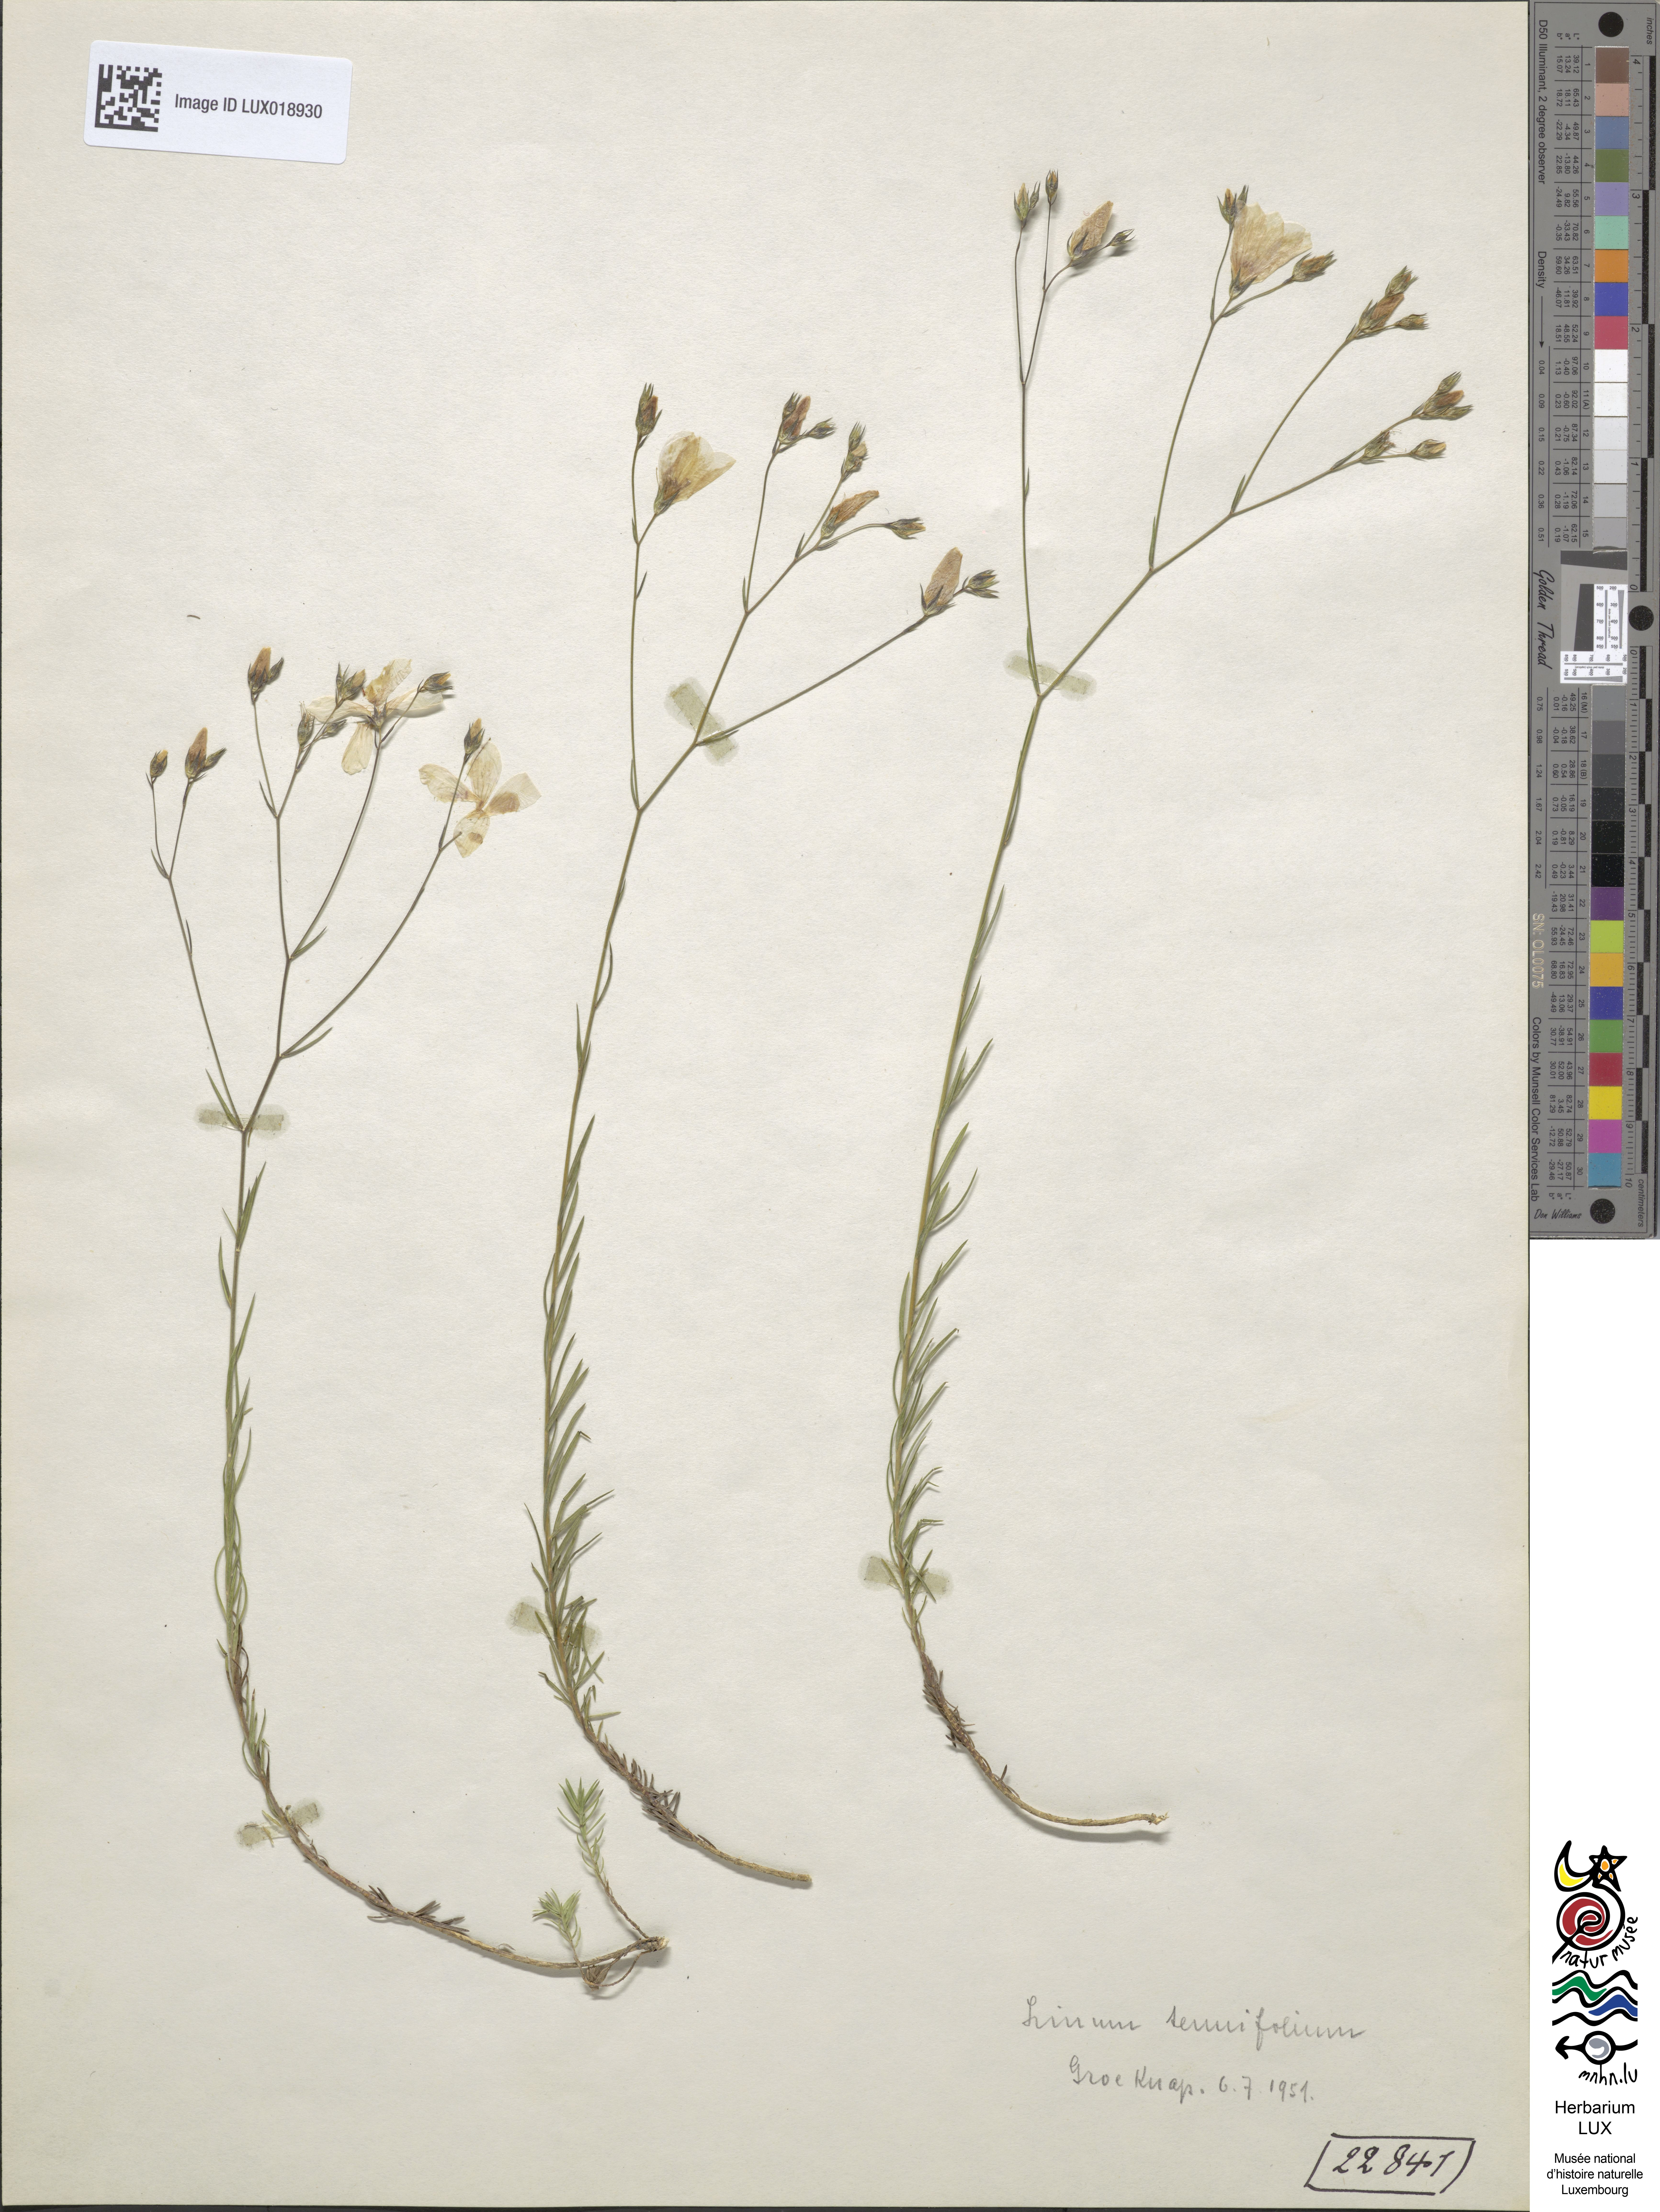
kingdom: Plantae
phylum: Tracheophyta
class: Magnoliopsida
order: Malpighiales
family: Linaceae
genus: Linum
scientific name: Linum tenuifolium
